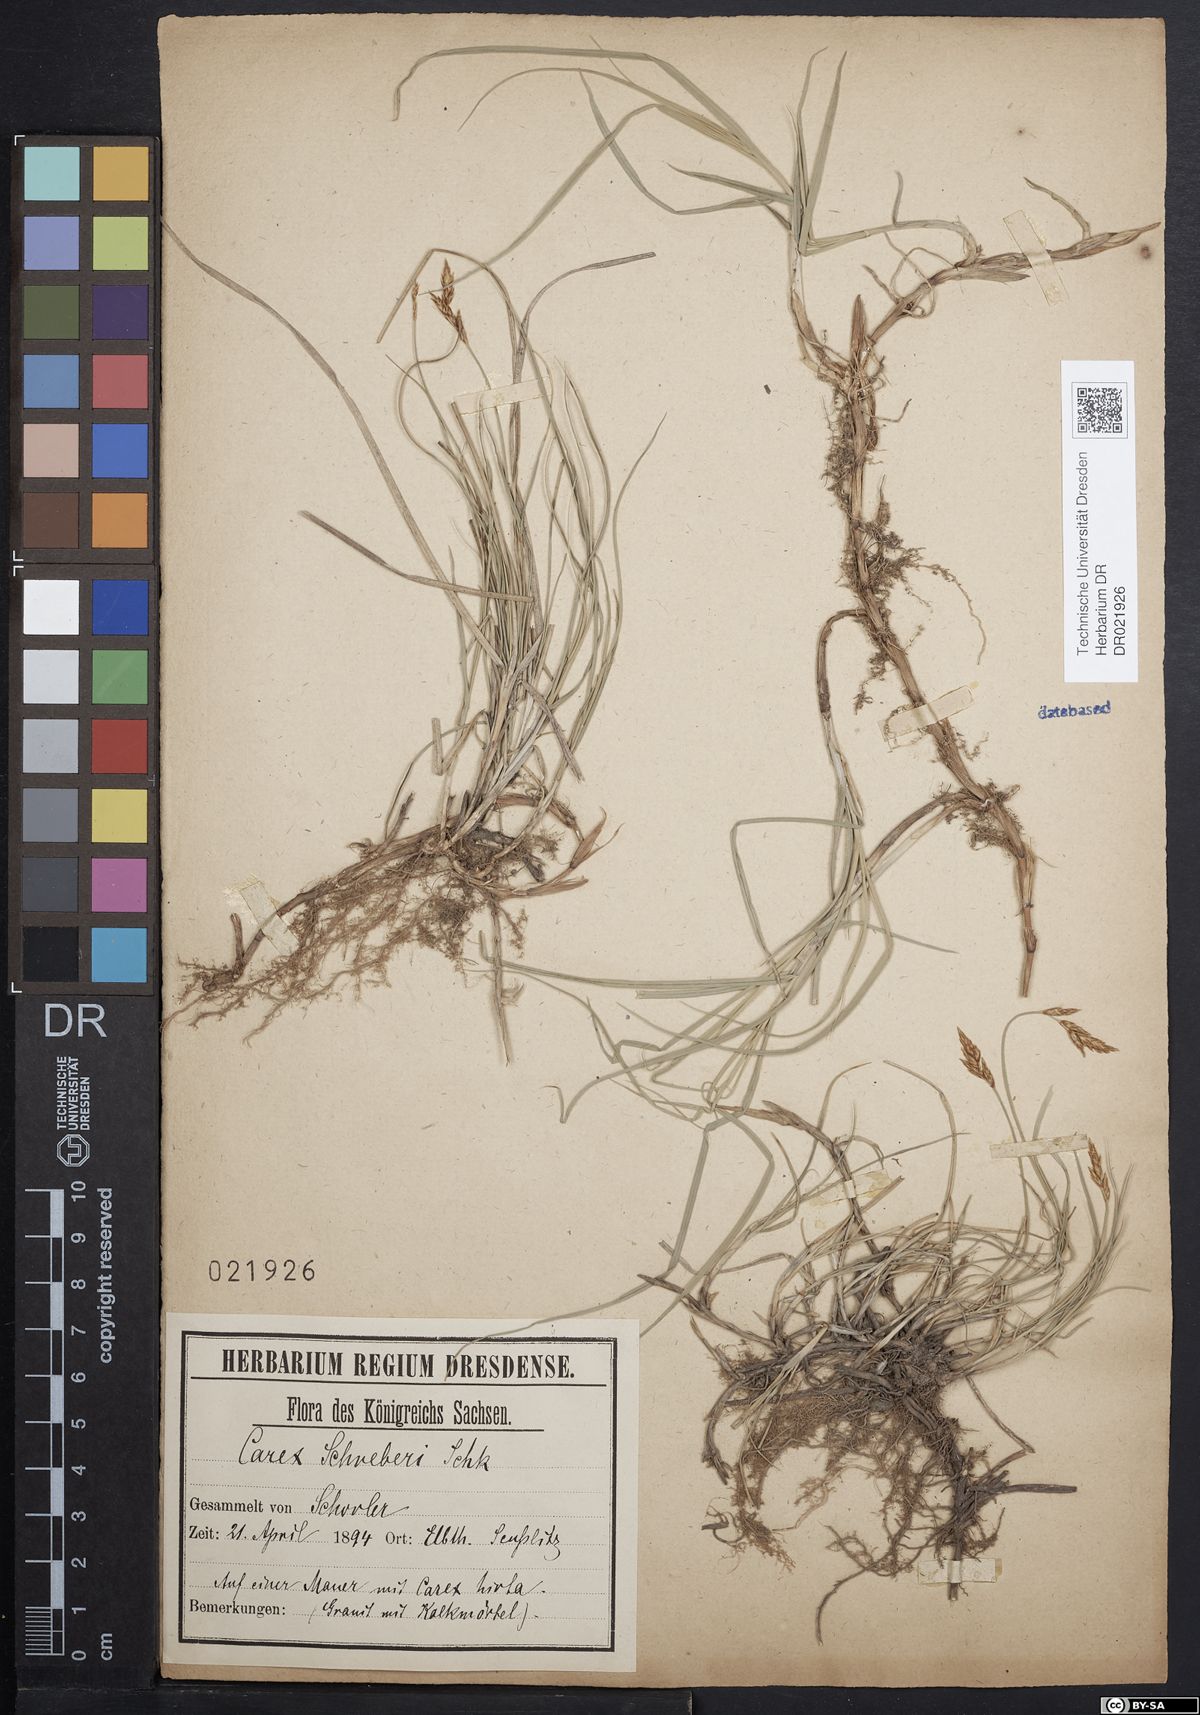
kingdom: Plantae
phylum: Tracheophyta
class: Liliopsida
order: Poales
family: Cyperaceae
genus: Carex
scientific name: Carex praecox
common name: Early sedge
